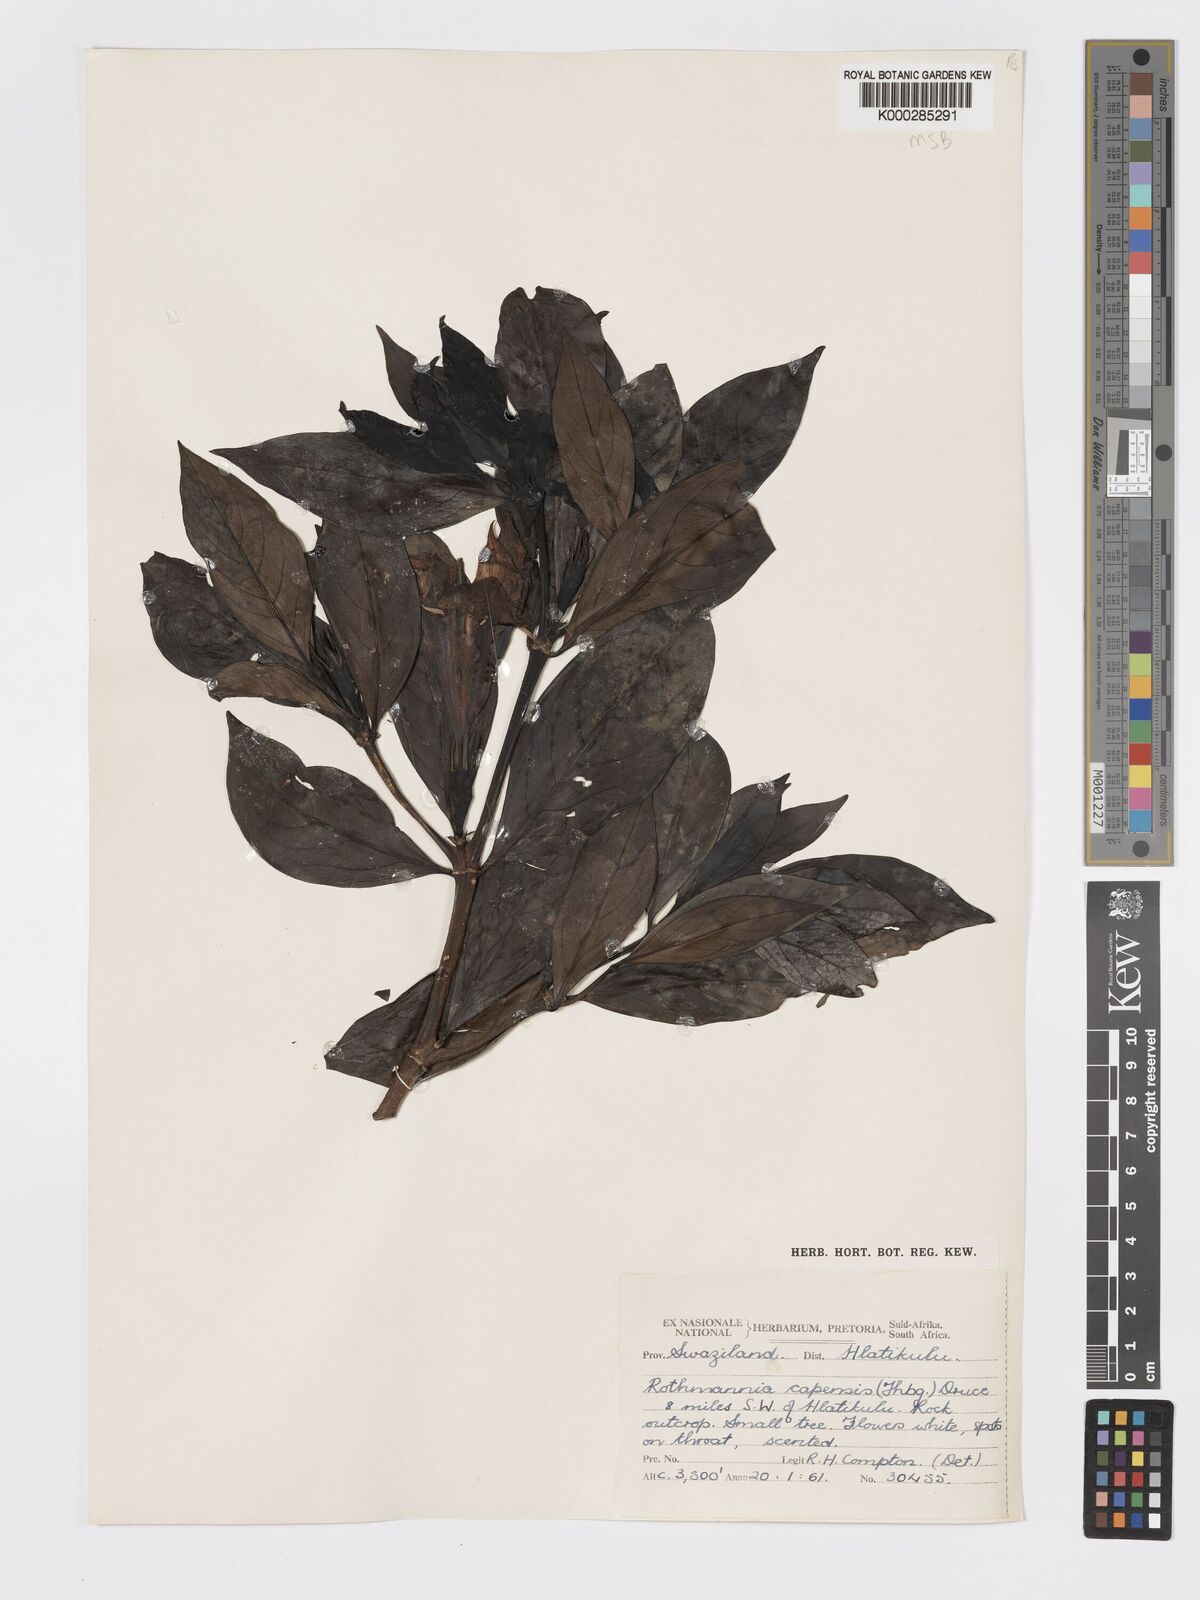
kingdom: Plantae
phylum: Tracheophyta
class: Magnoliopsida
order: Gentianales
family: Rubiaceae
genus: Rothmannia
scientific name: Rothmannia capensis
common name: Cape gardenia
